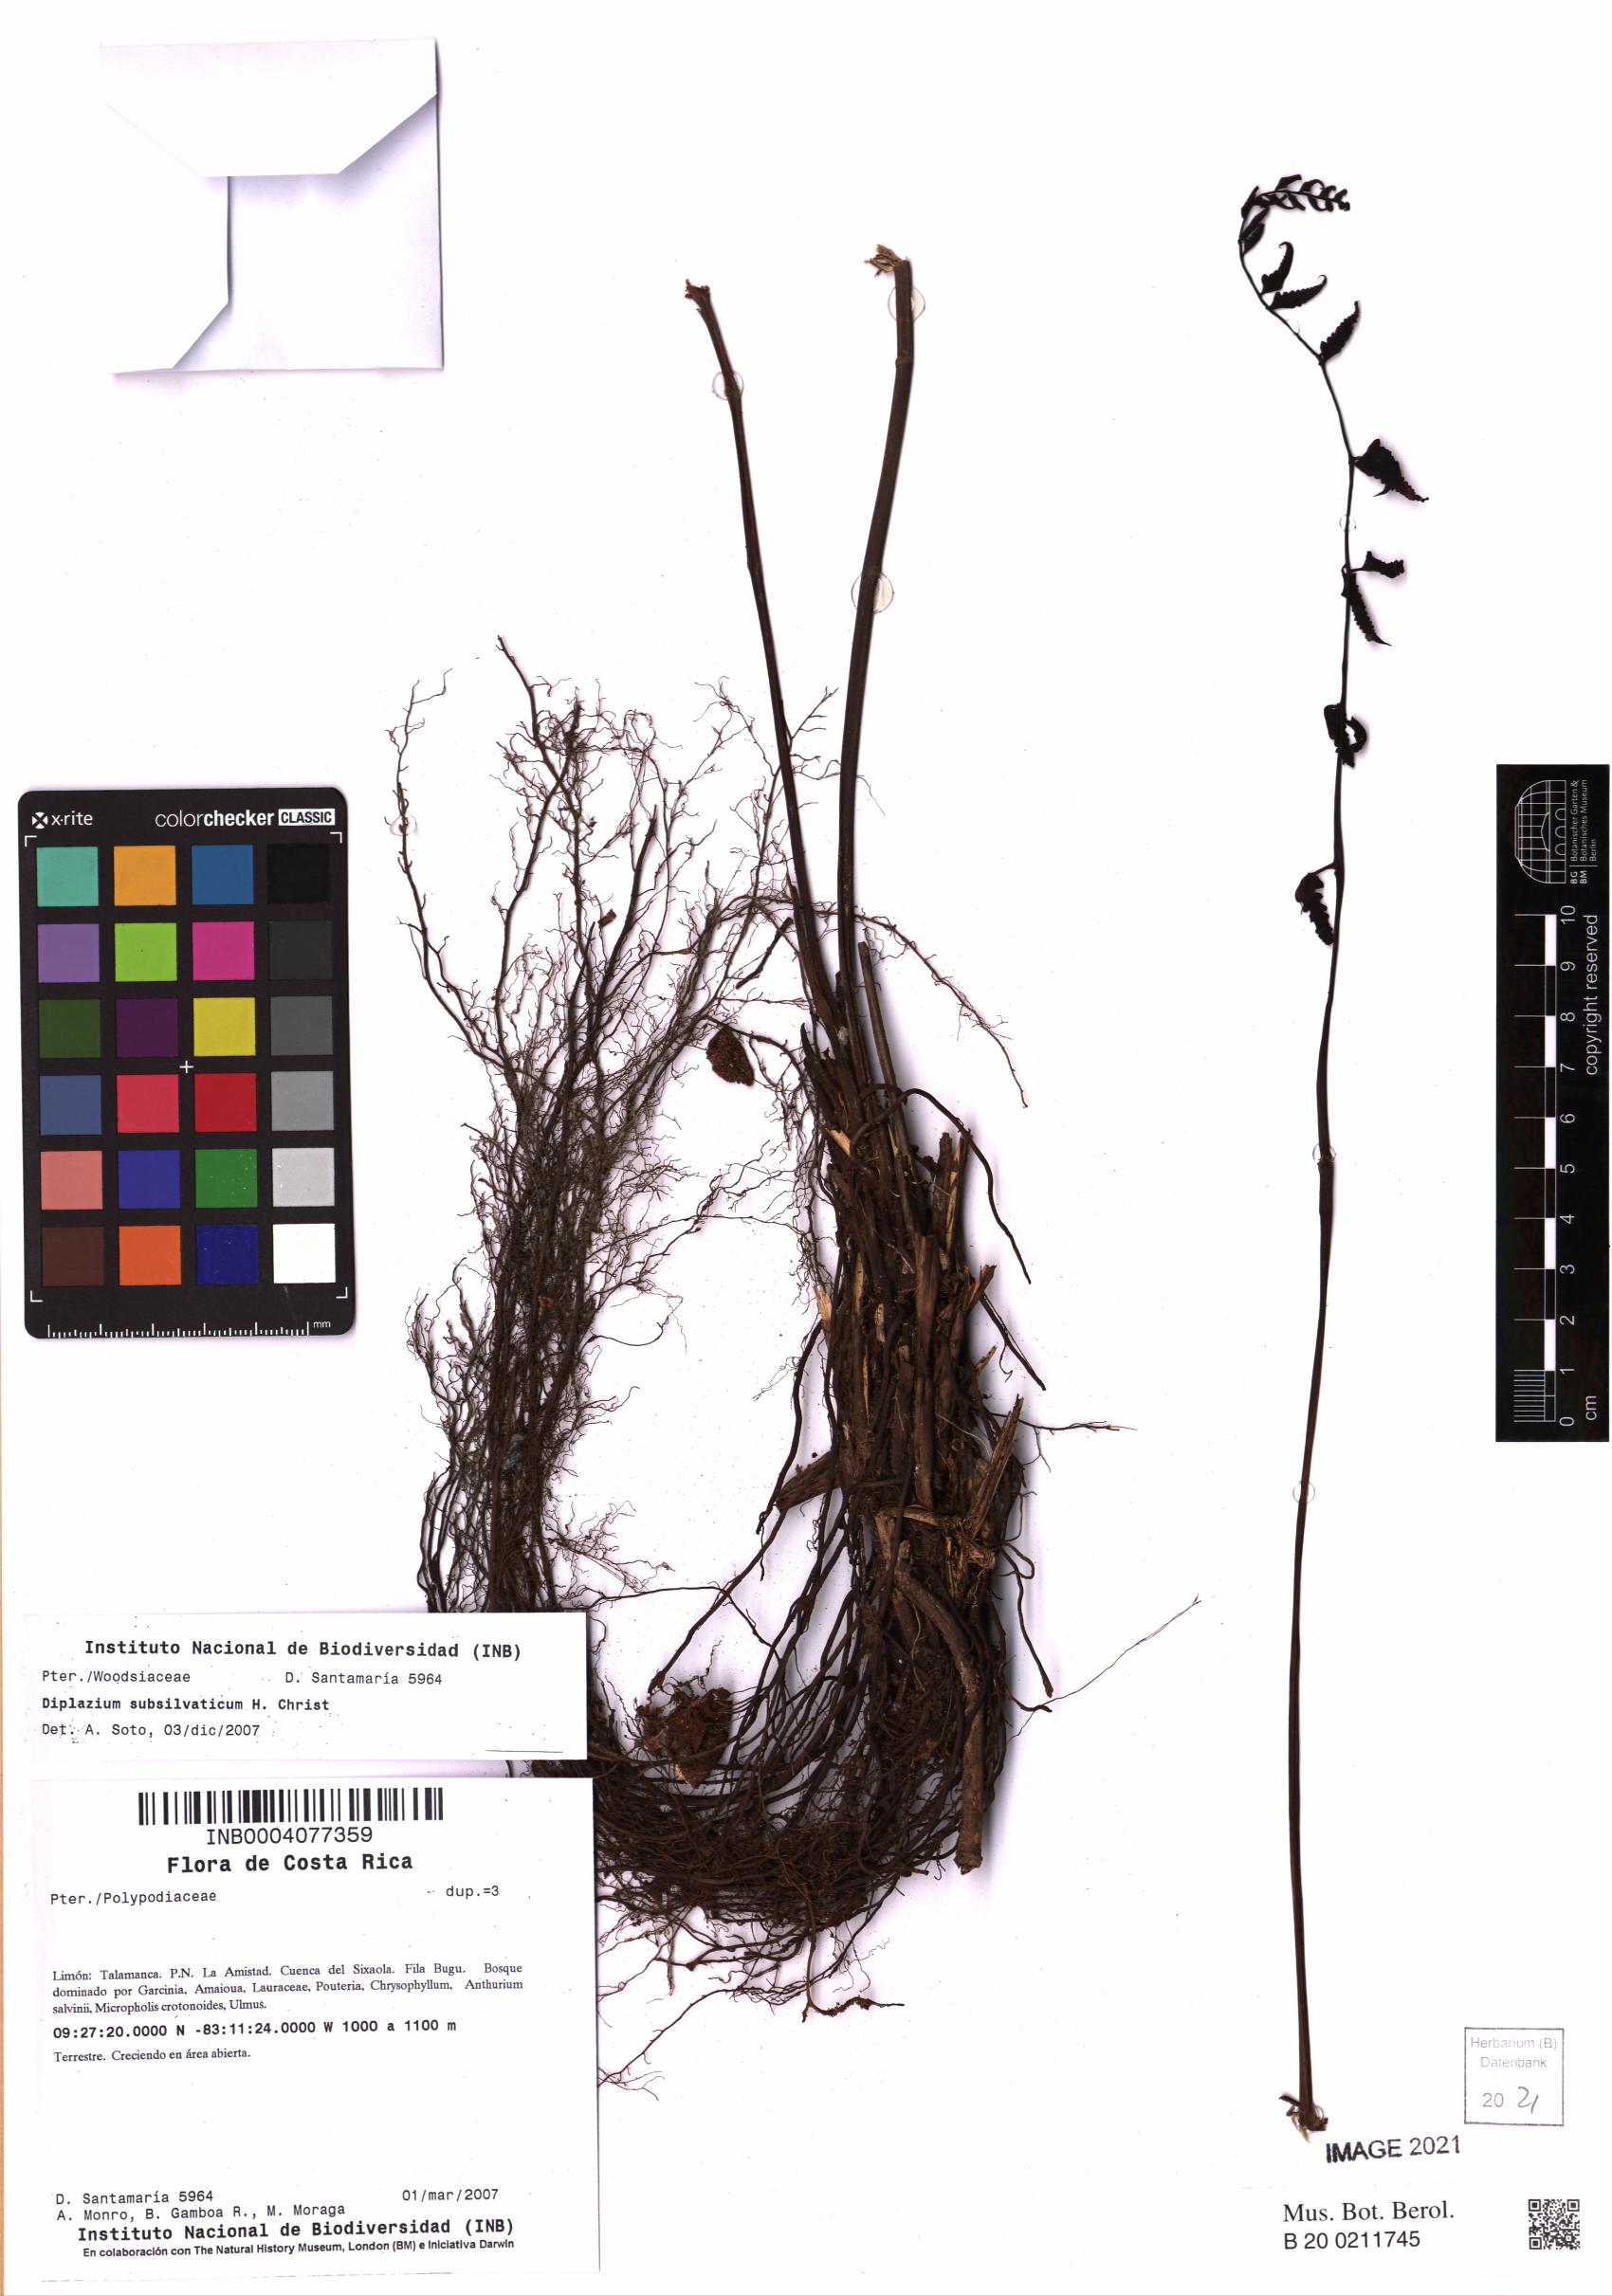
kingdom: Plantae
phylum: Tracheophyta
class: Polypodiopsida
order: Polypodiales
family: Athyriaceae
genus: Diplazium
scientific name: Diplazium subsilvaticum
